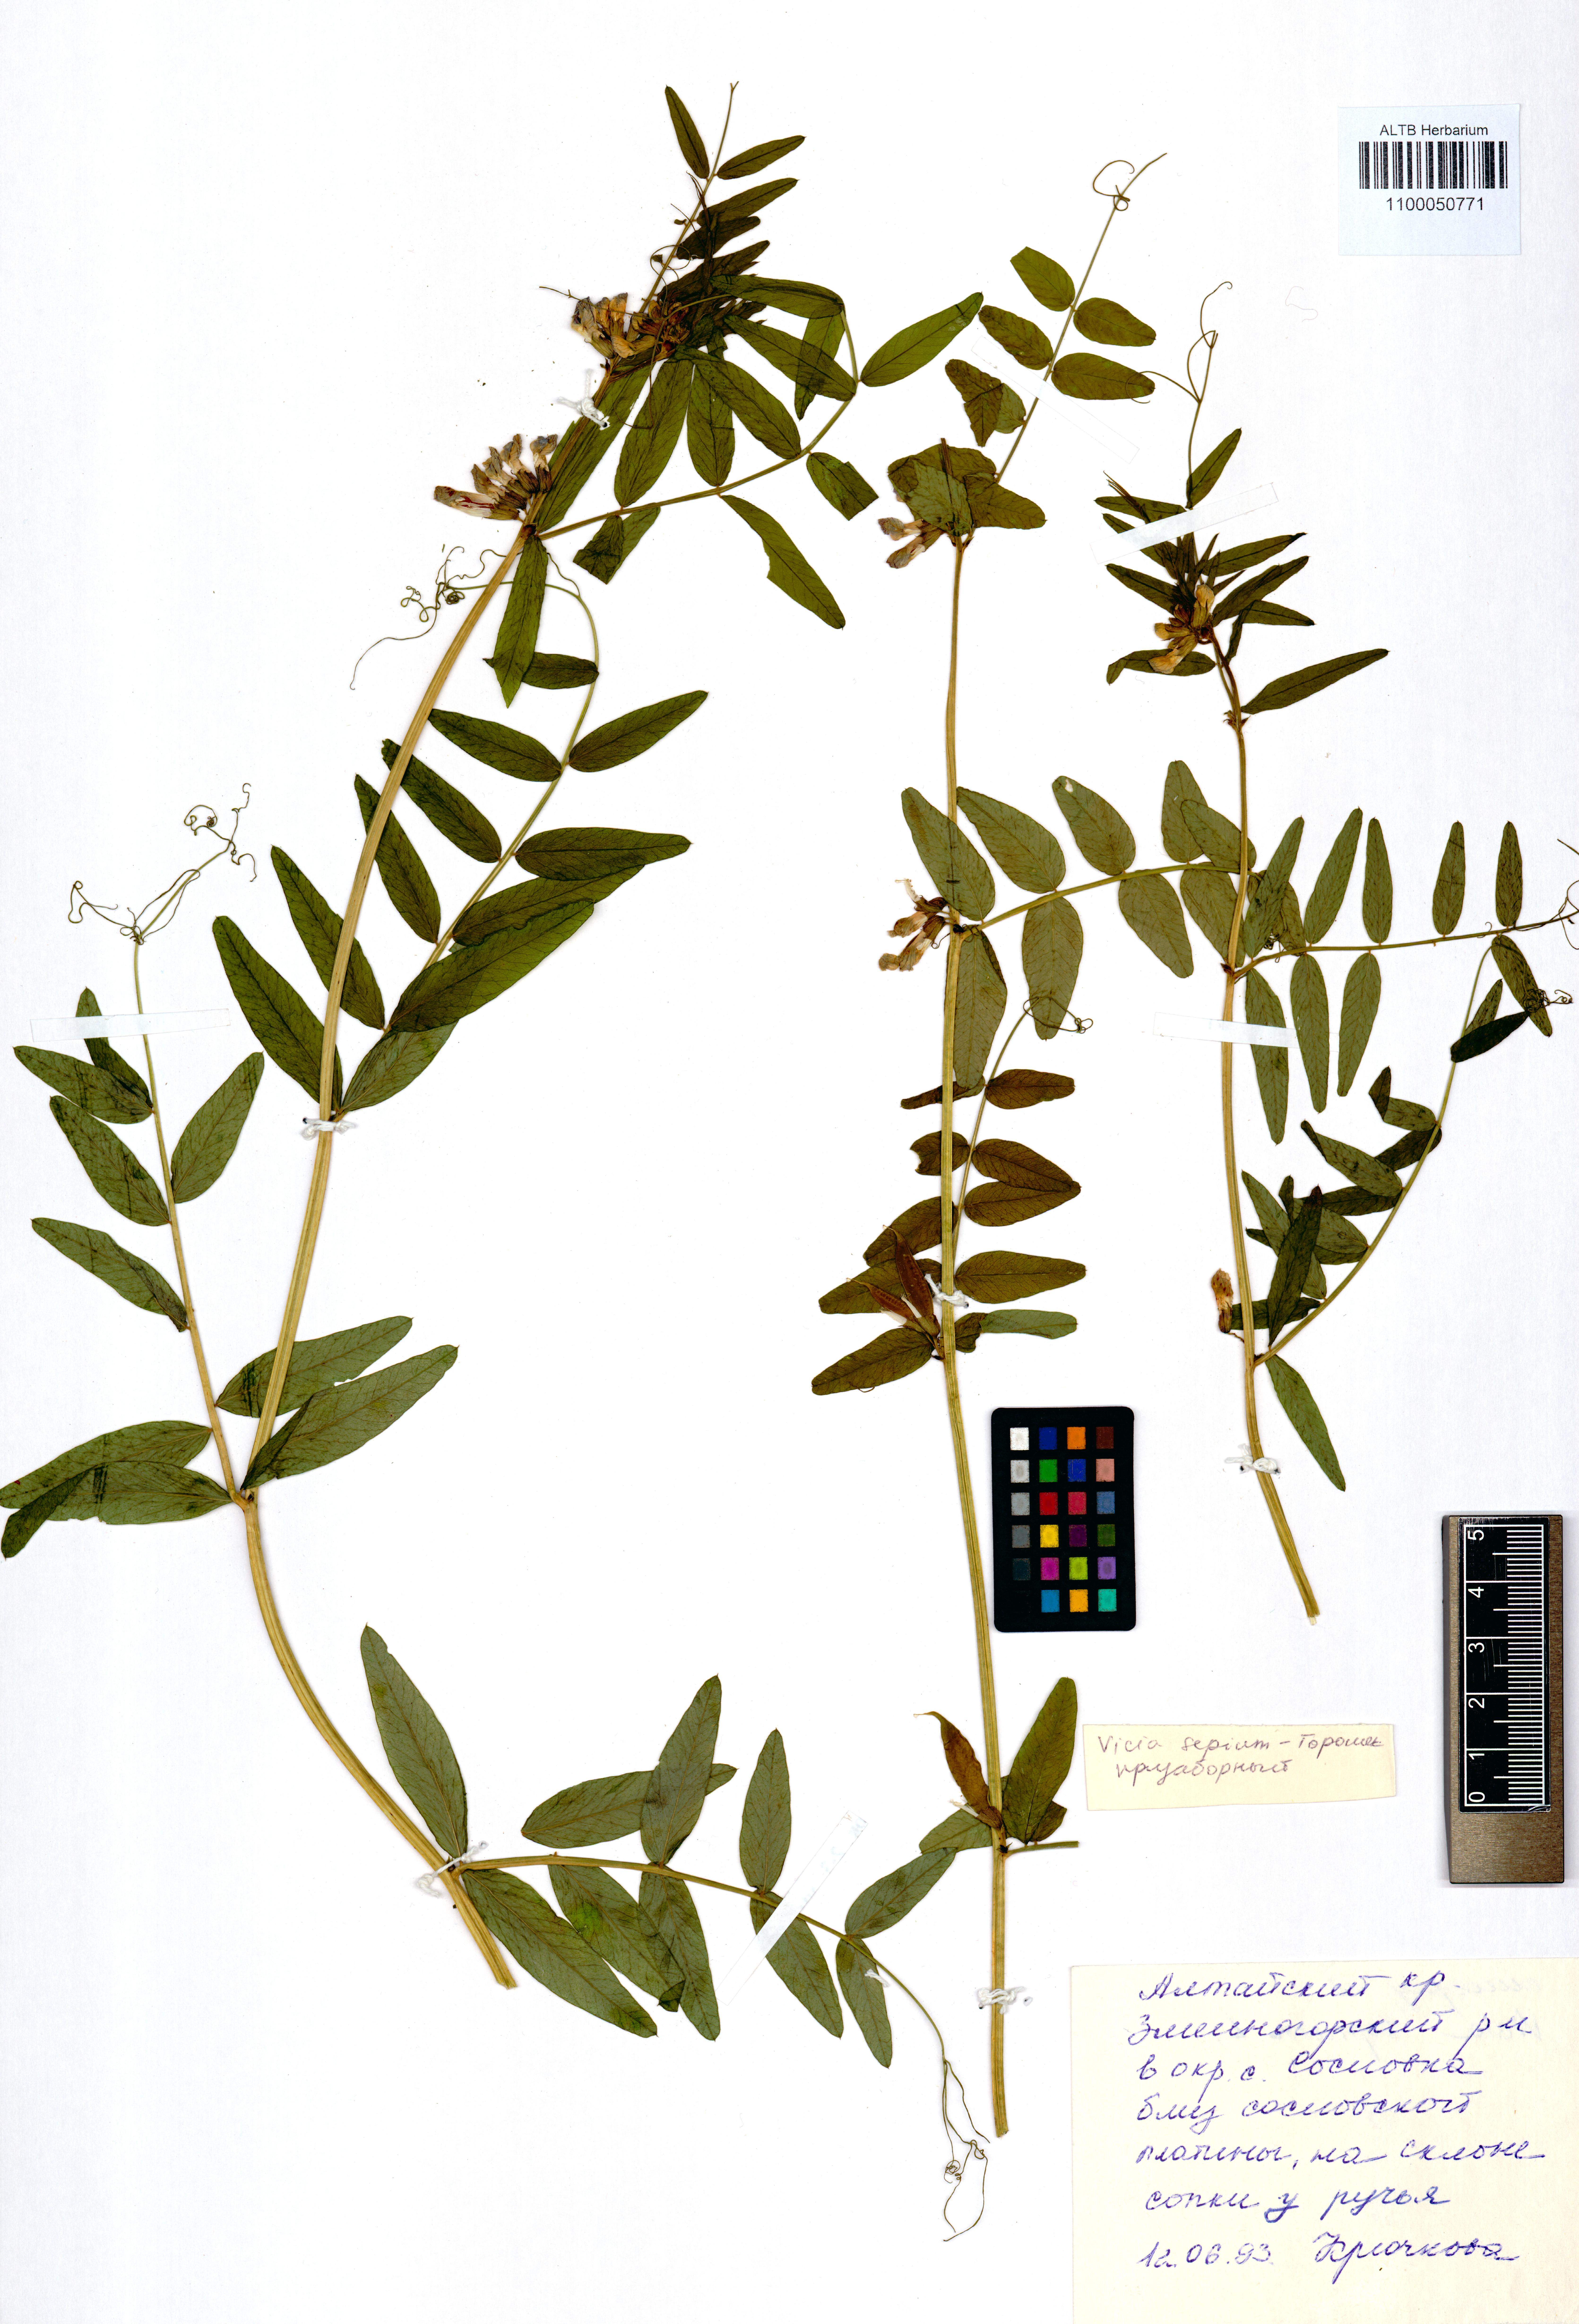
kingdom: Plantae
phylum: Tracheophyta
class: Magnoliopsida
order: Fabales
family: Fabaceae
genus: Vicia
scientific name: Vicia sepium
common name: Bush vetch
